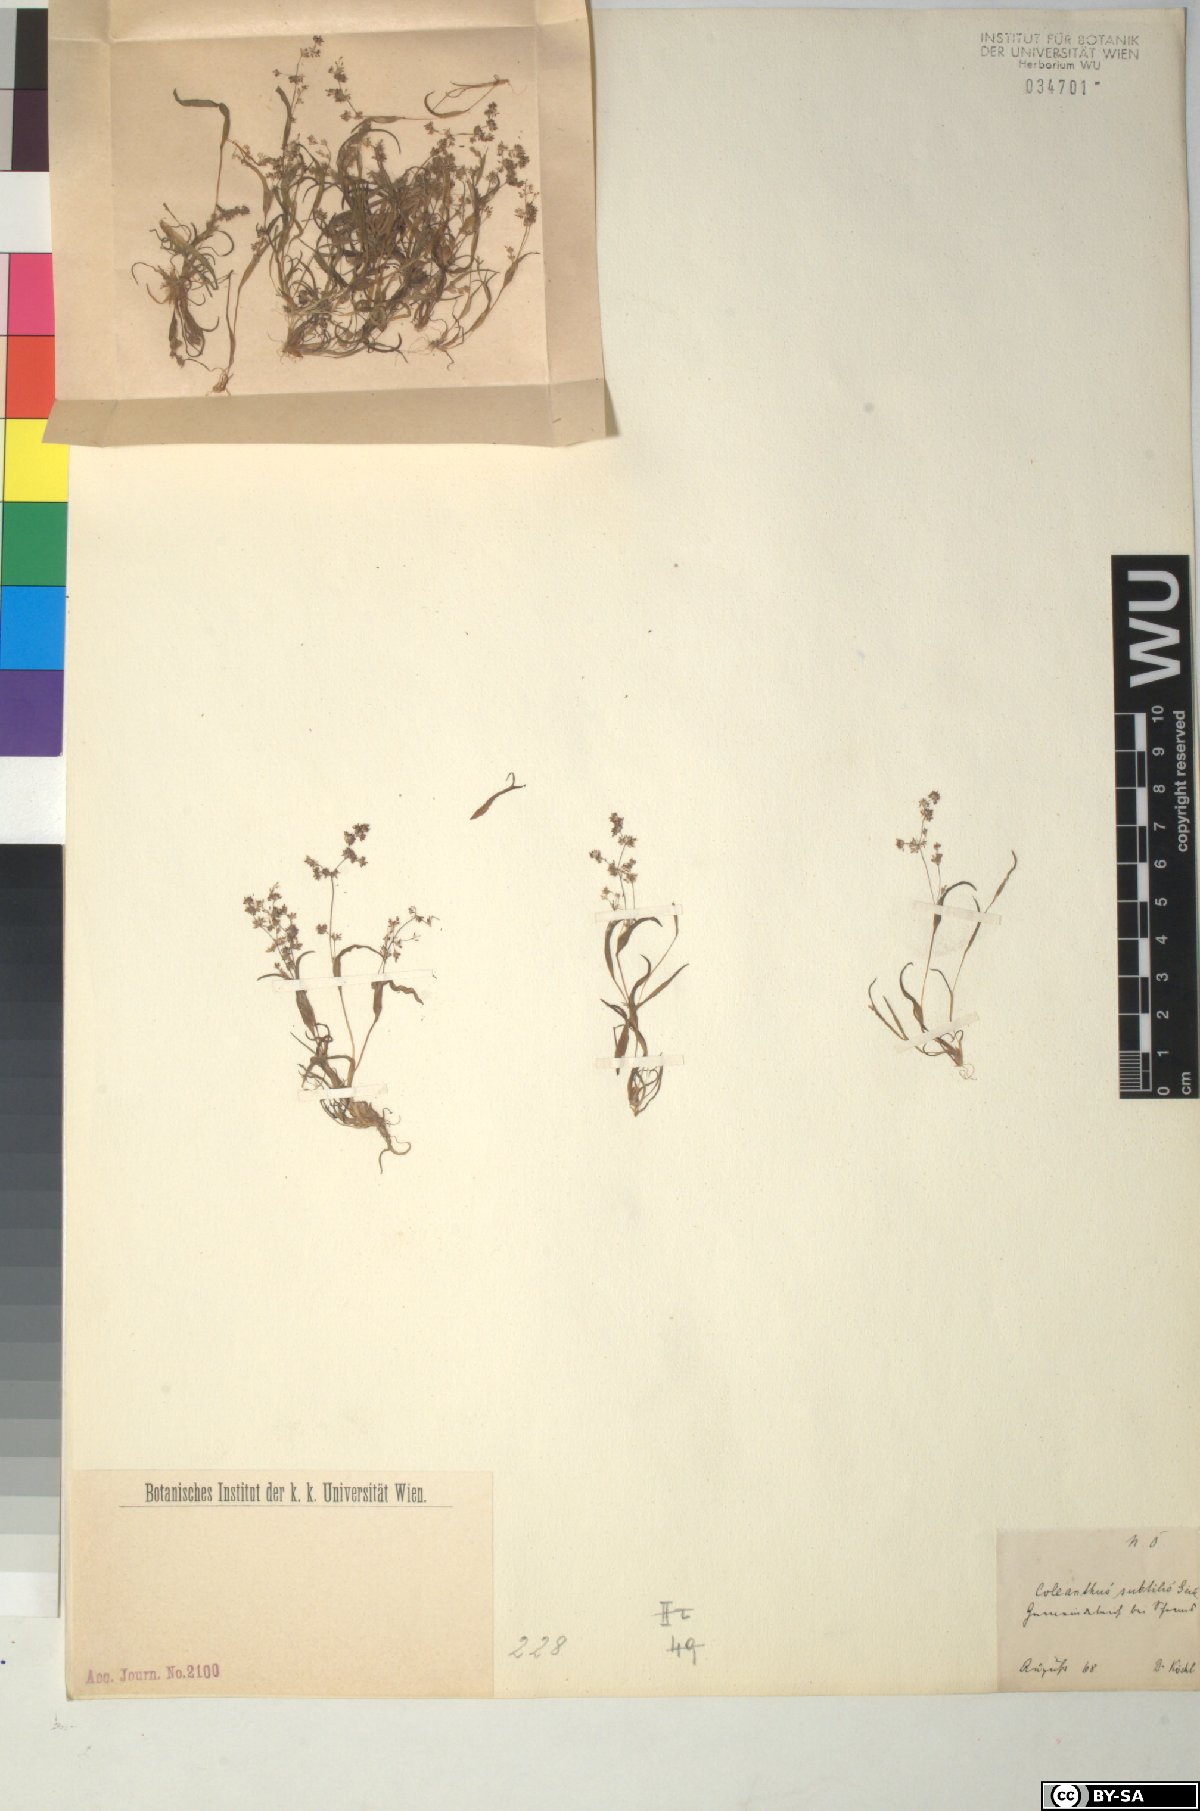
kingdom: Plantae
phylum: Tracheophyta
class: Liliopsida
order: Poales
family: Poaceae
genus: Coleanthus
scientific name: Coleanthus subtilis
